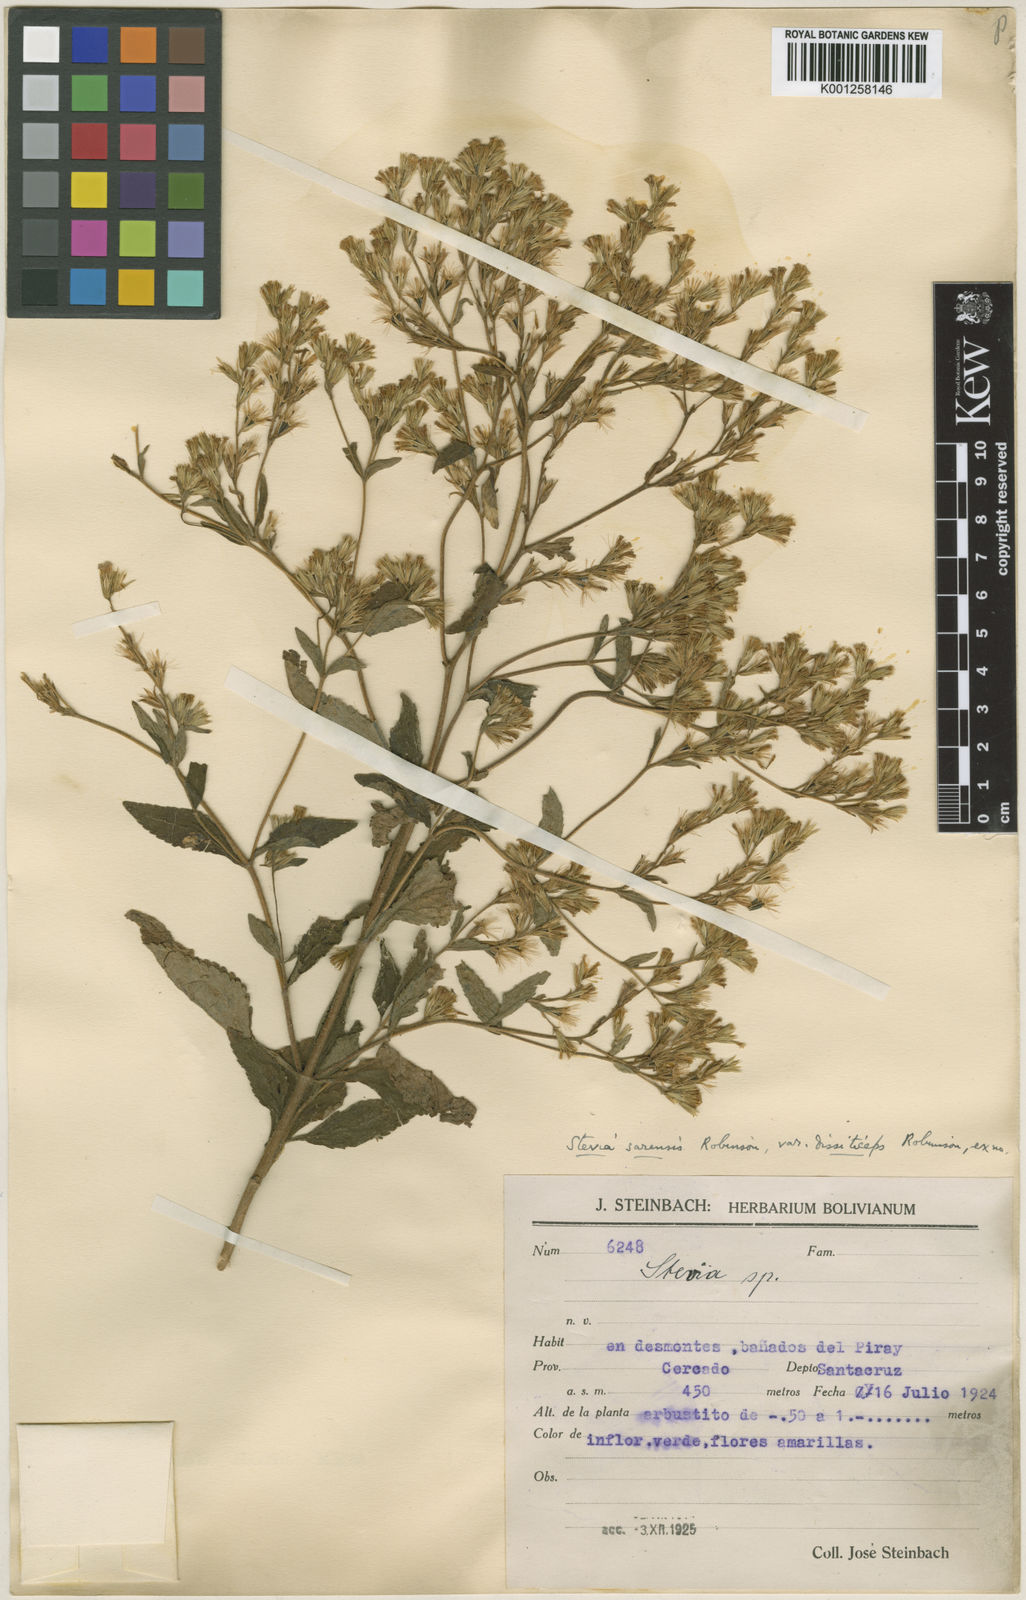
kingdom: Plantae
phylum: Tracheophyta
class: Magnoliopsida
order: Asterales
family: Asteraceae
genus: Stevia
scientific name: Stevia sarensis
